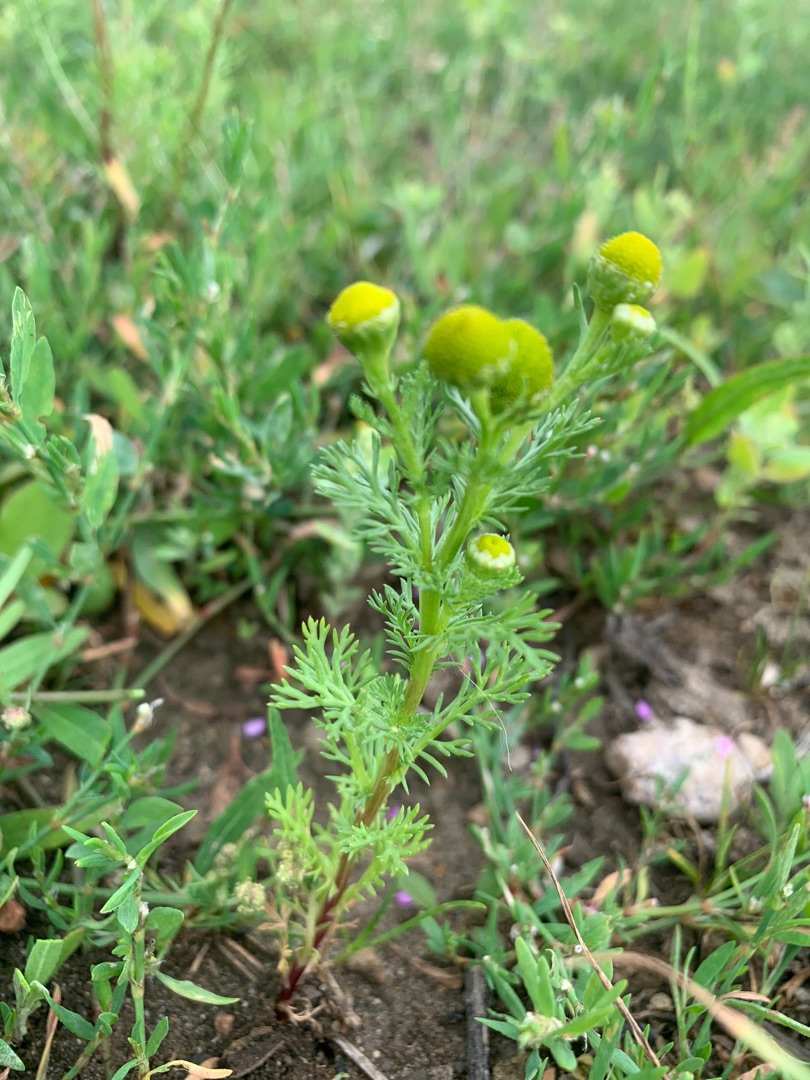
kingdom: Plantae
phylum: Tracheophyta
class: Magnoliopsida
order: Asterales
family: Asteraceae
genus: Matricaria
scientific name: Matricaria discoidea
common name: Skive-kamille
